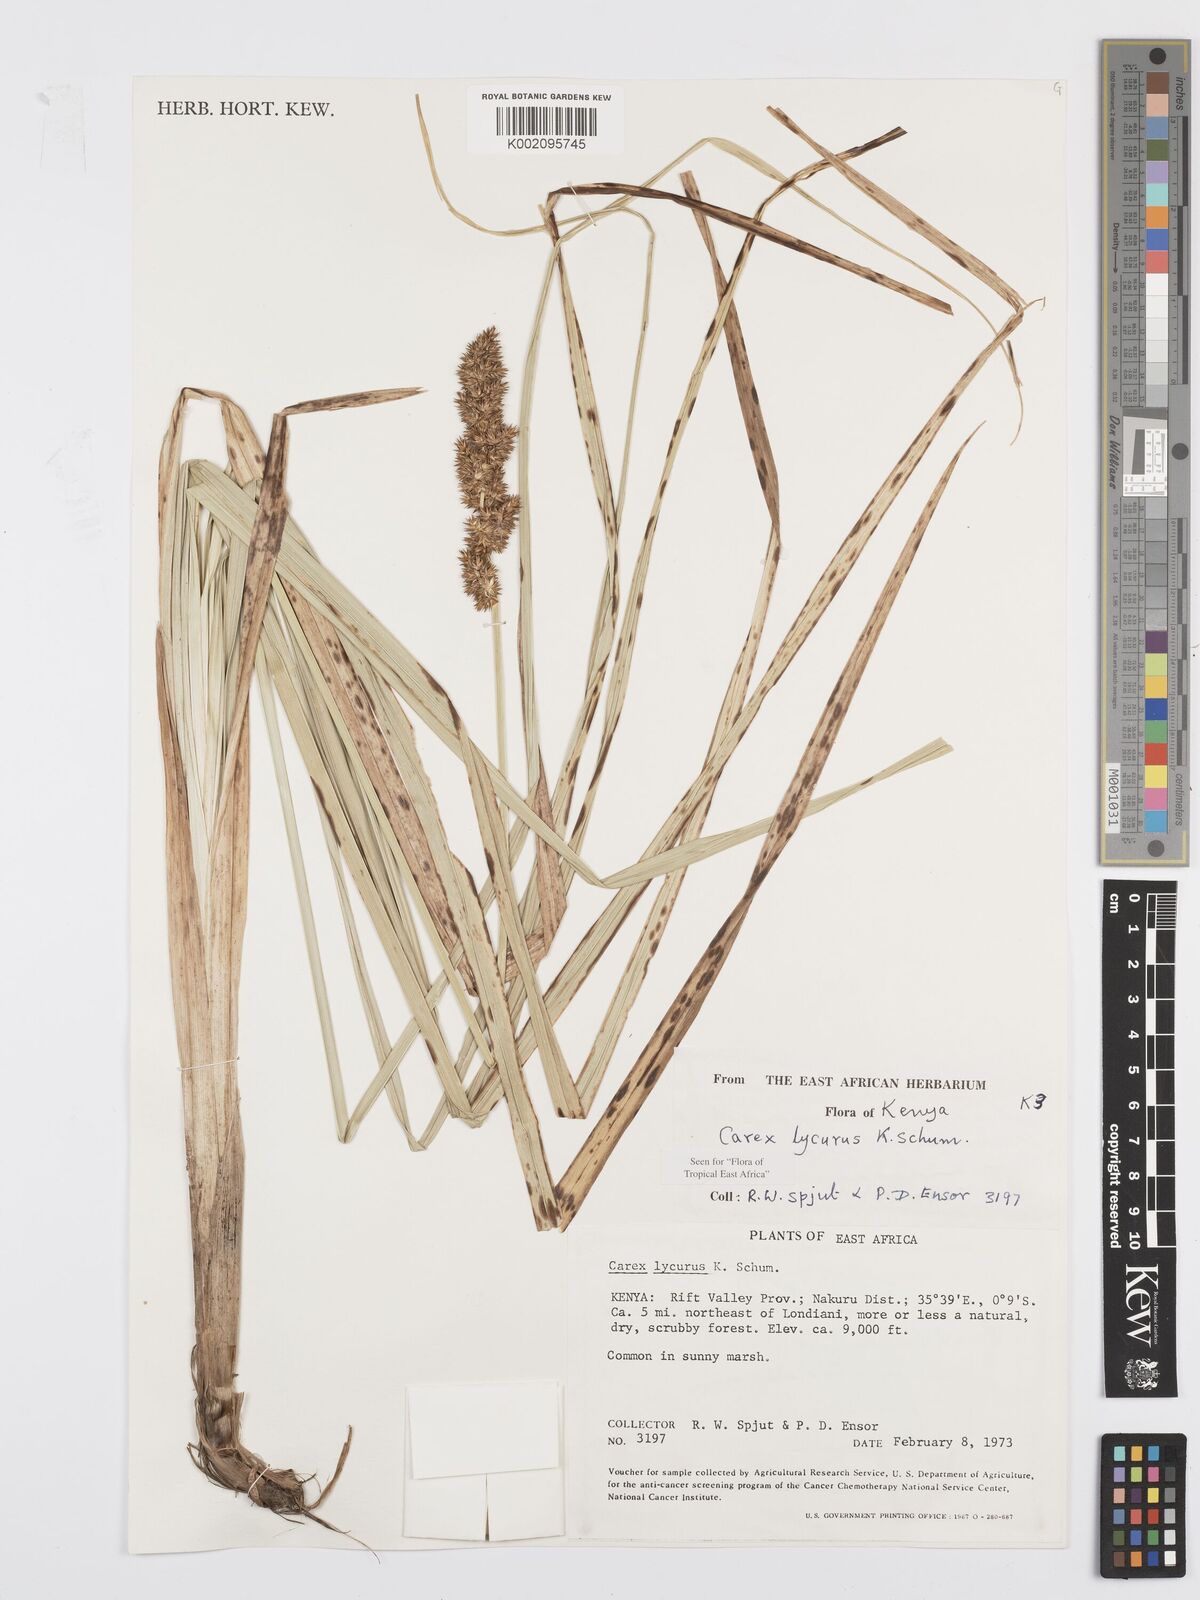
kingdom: Plantae
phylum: Tracheophyta
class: Liliopsida
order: Poales
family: Cyperaceae
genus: Carex
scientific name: Carex lycurus
